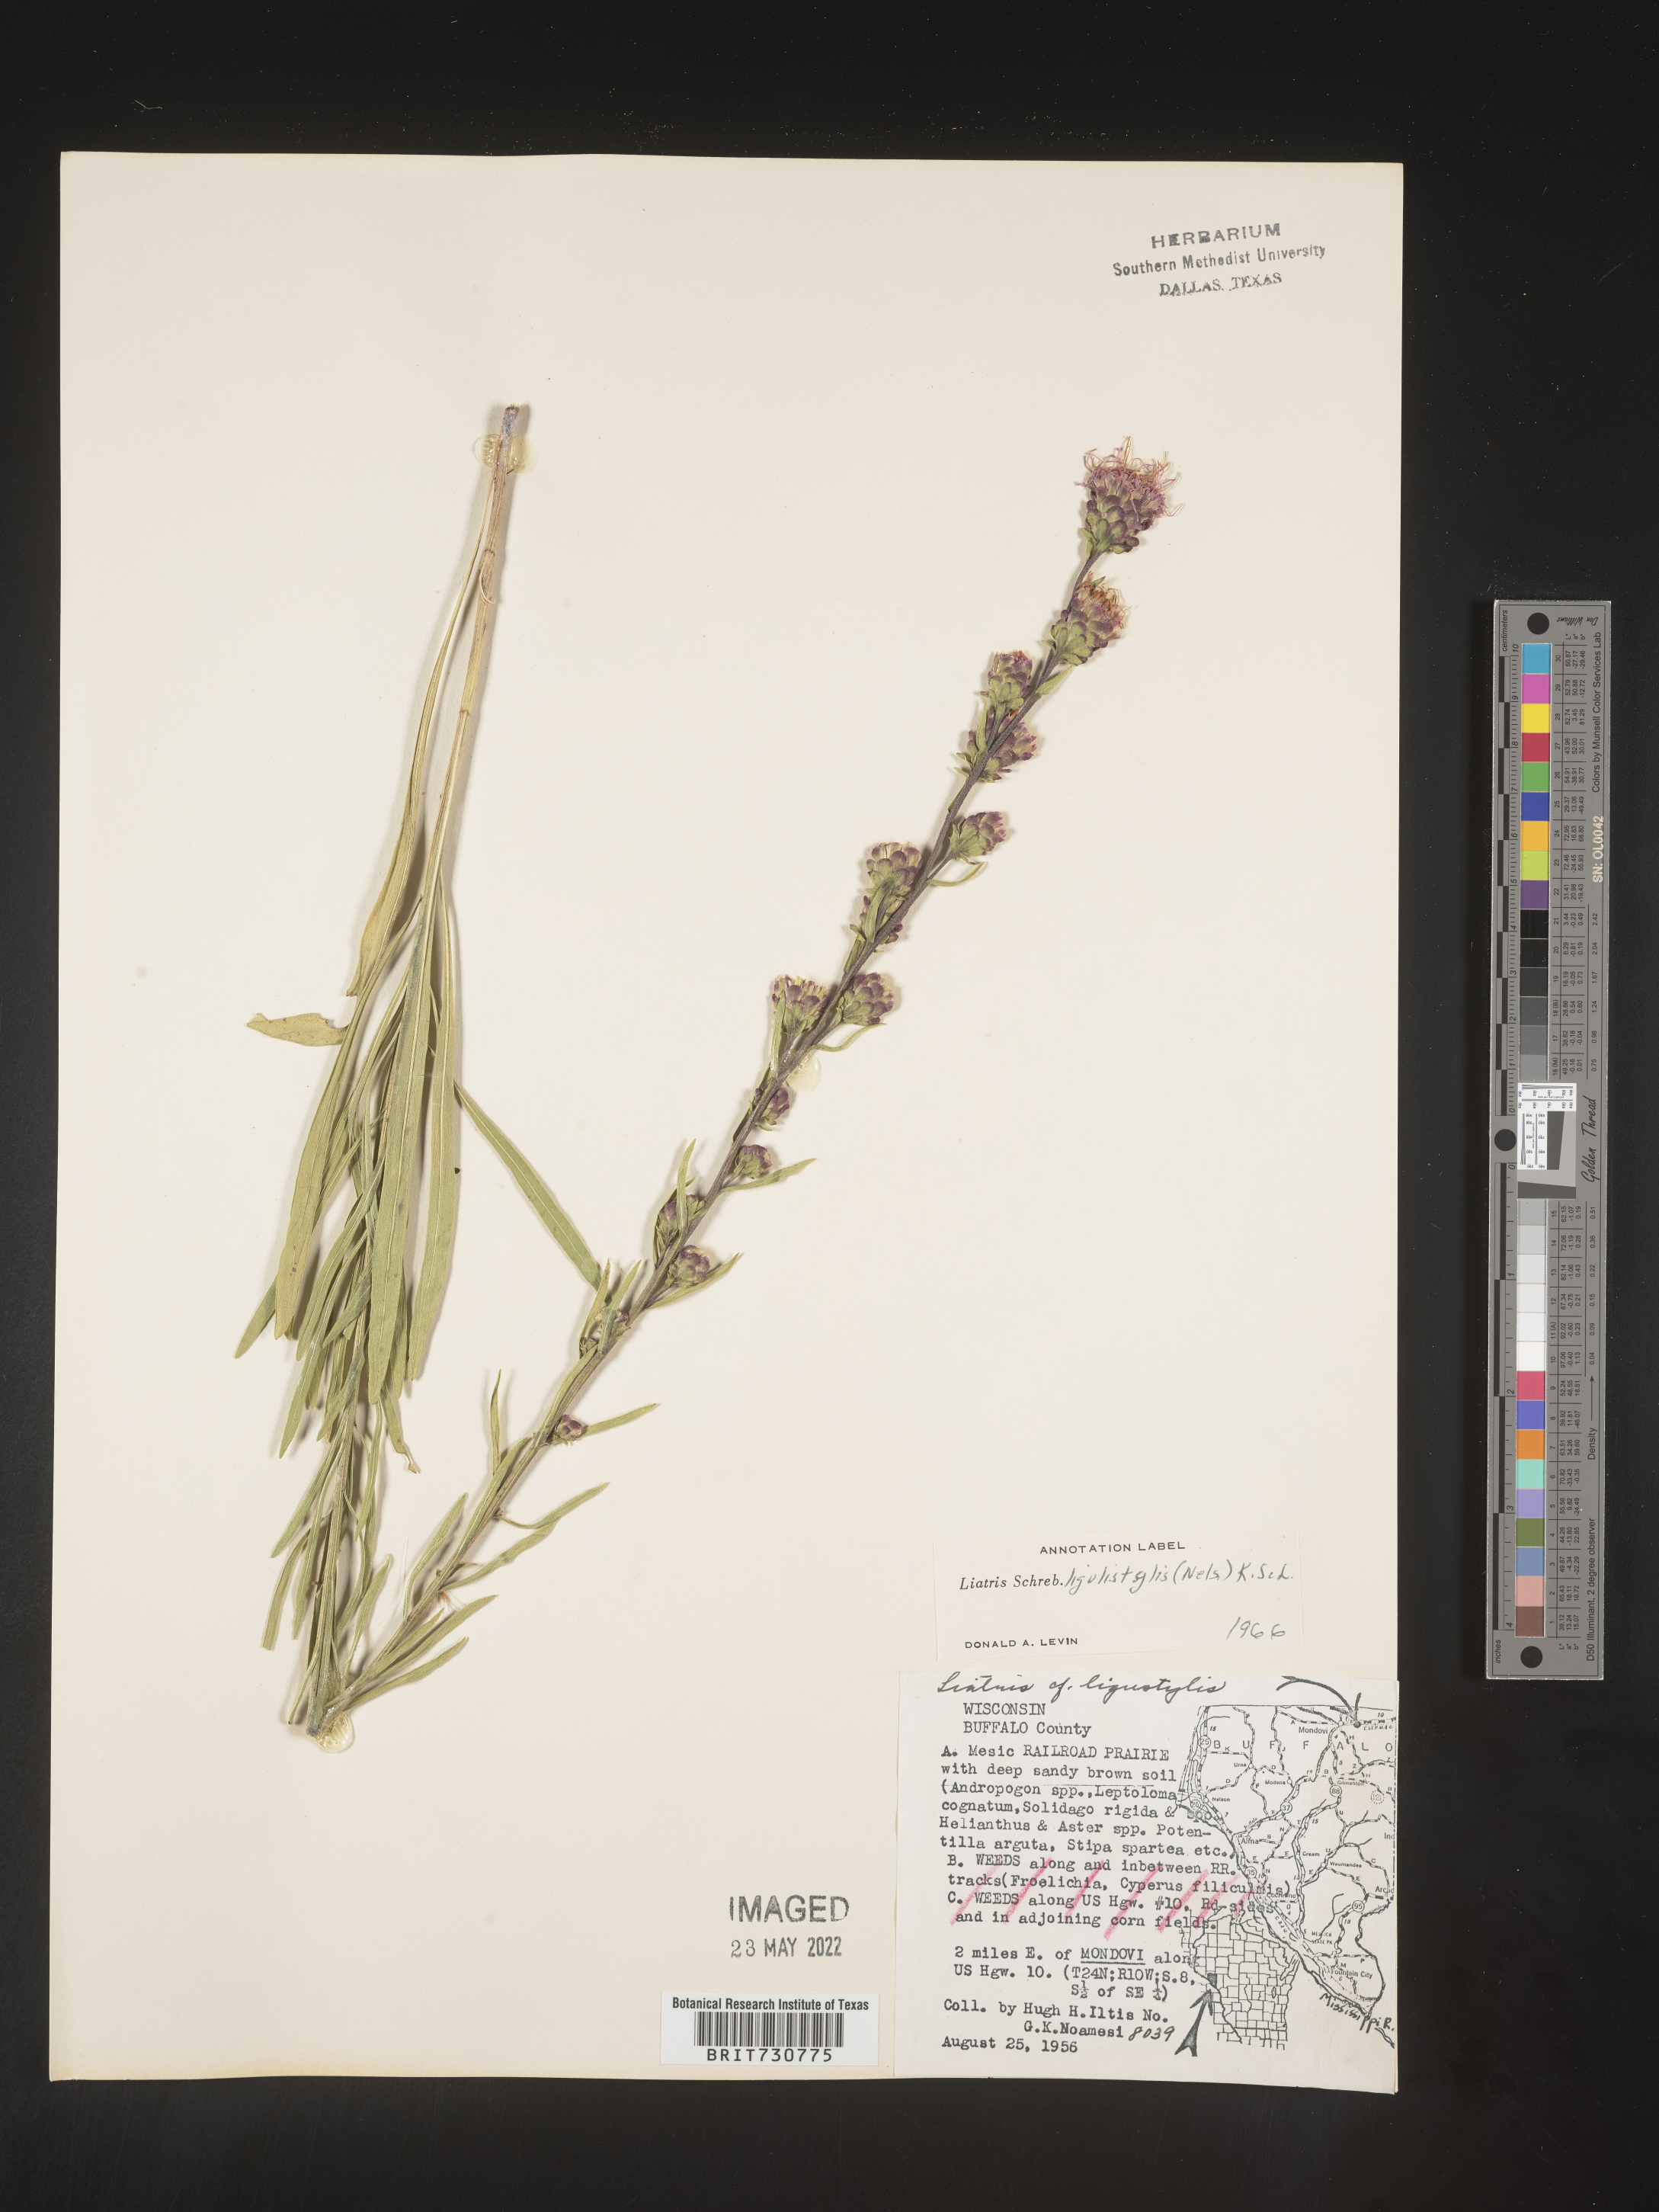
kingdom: Plantae
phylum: Tracheophyta
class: Magnoliopsida
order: Asterales
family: Asteraceae
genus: Liatris
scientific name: Liatris ligulistylis
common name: Northern plains gayfeather
